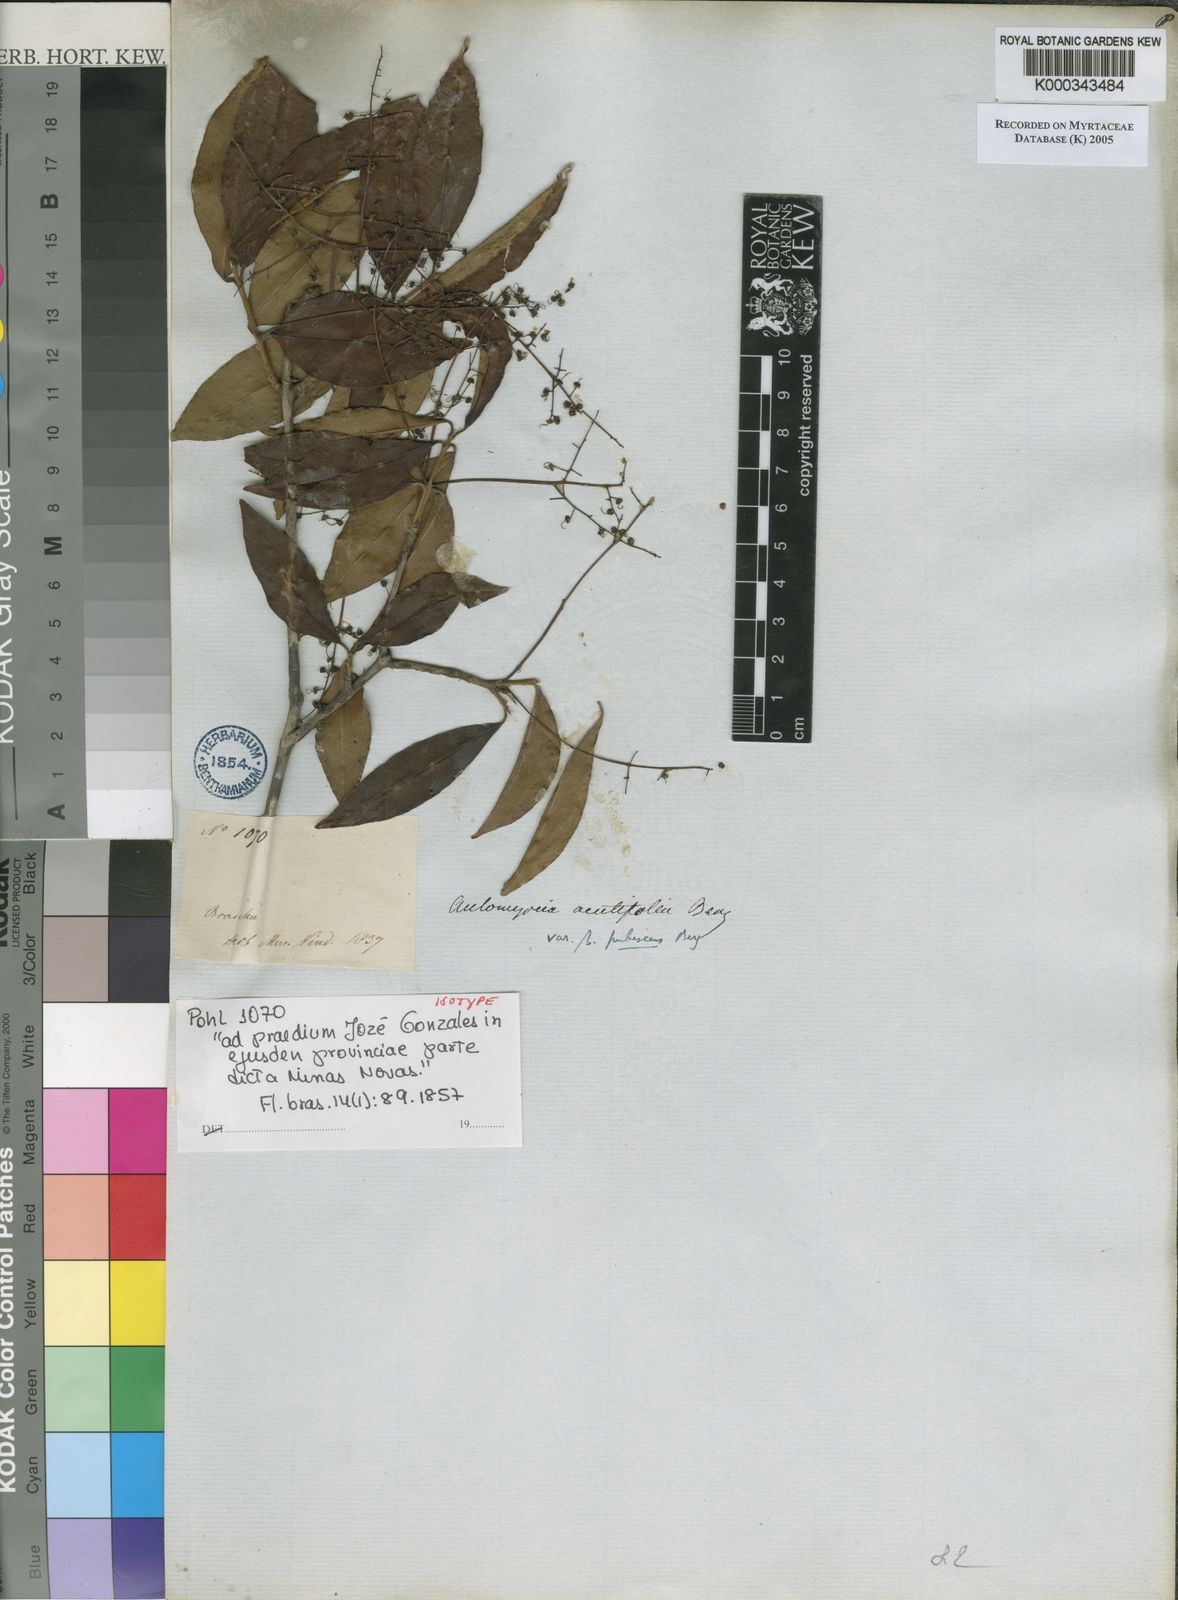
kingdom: Plantae
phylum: Tracheophyta
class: Magnoliopsida
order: Myrtales
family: Myrtaceae
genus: Myrcia
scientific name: Myrcia laruotteana
